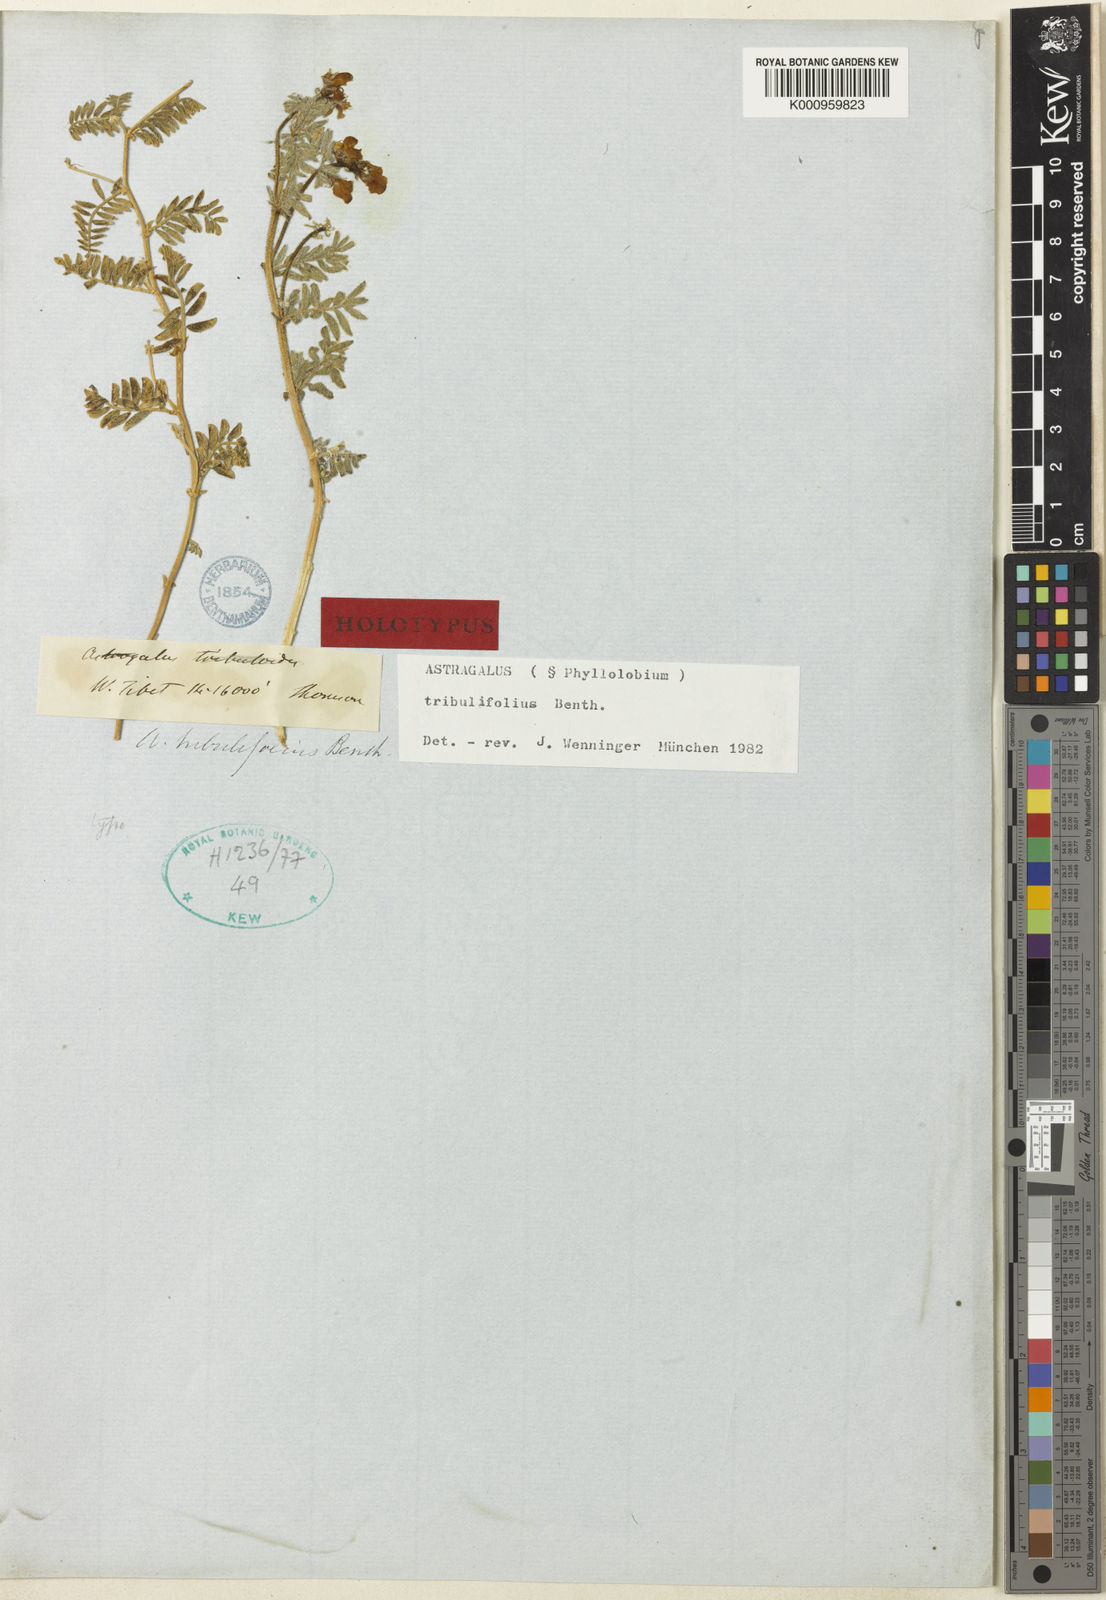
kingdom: Plantae
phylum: Tracheophyta
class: Magnoliopsida
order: Fabales
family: Fabaceae
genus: Astragalus
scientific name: Astragalus
